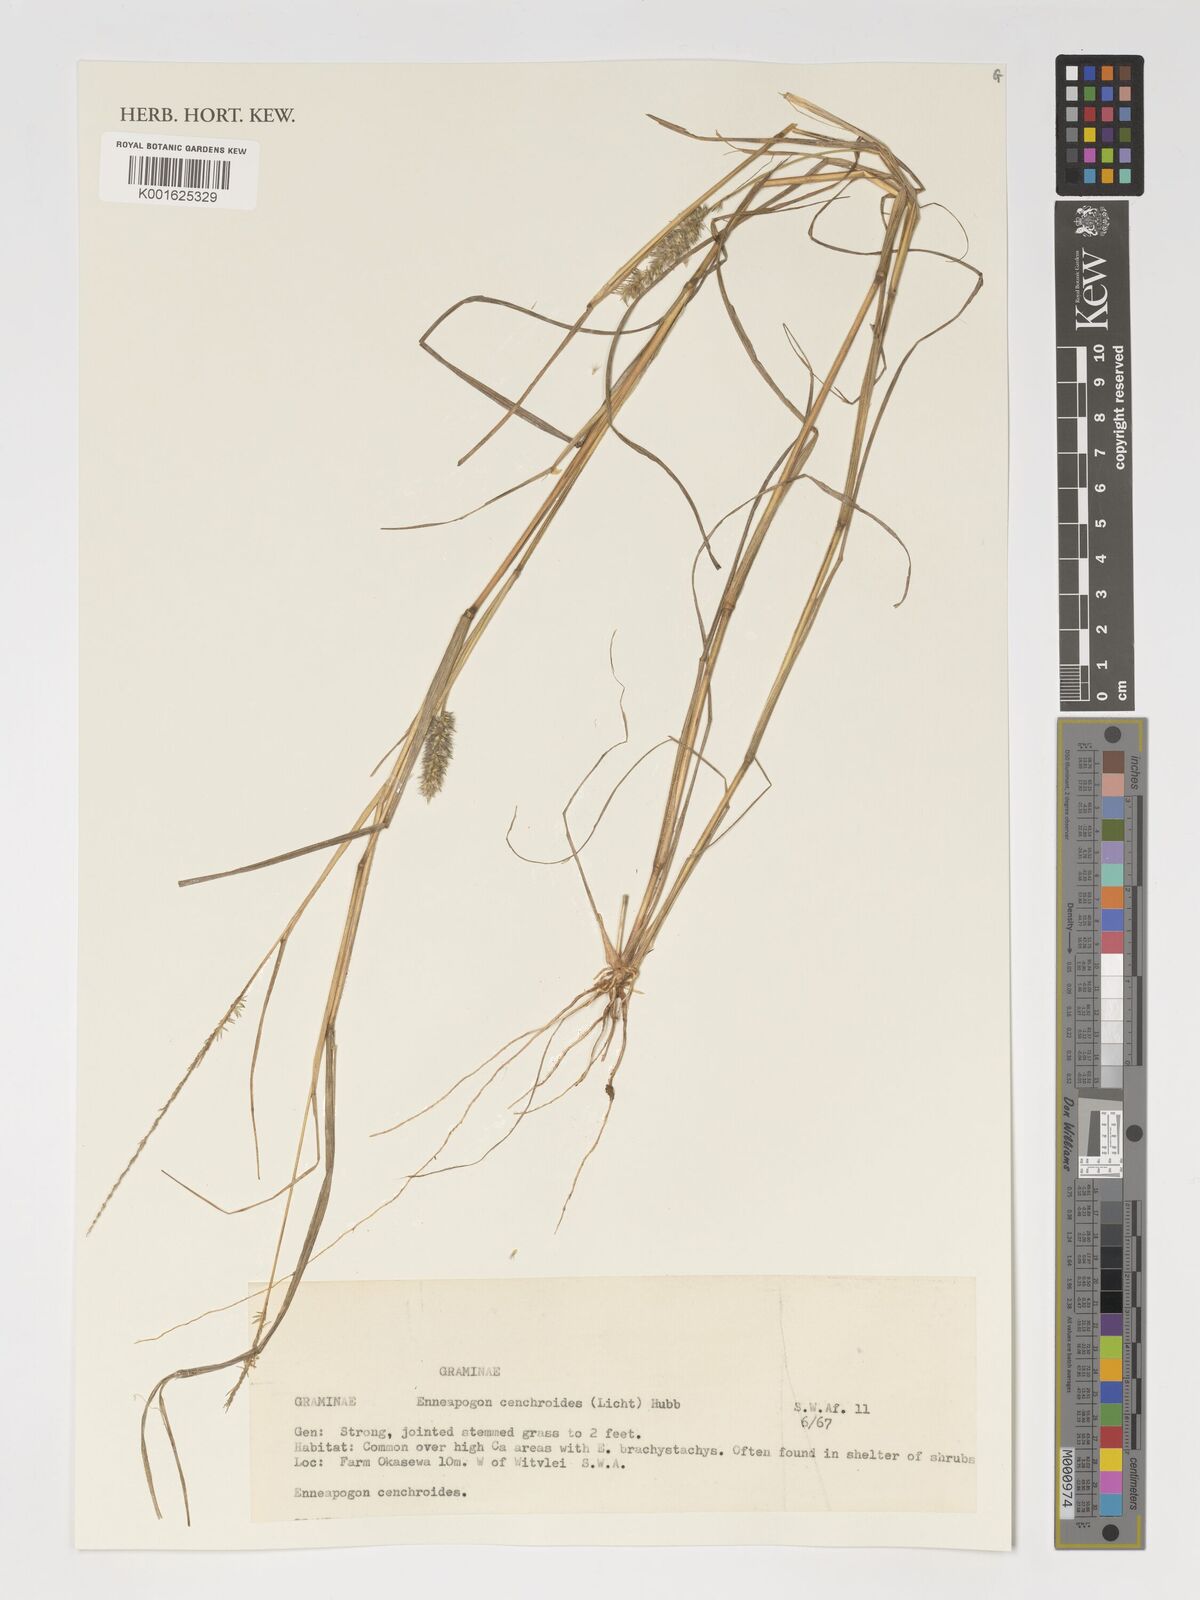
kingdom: Plantae
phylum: Tracheophyta
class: Liliopsida
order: Poales
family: Poaceae
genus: Enneapogon
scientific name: Enneapogon cenchroides
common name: Soft feather pappusgrass
